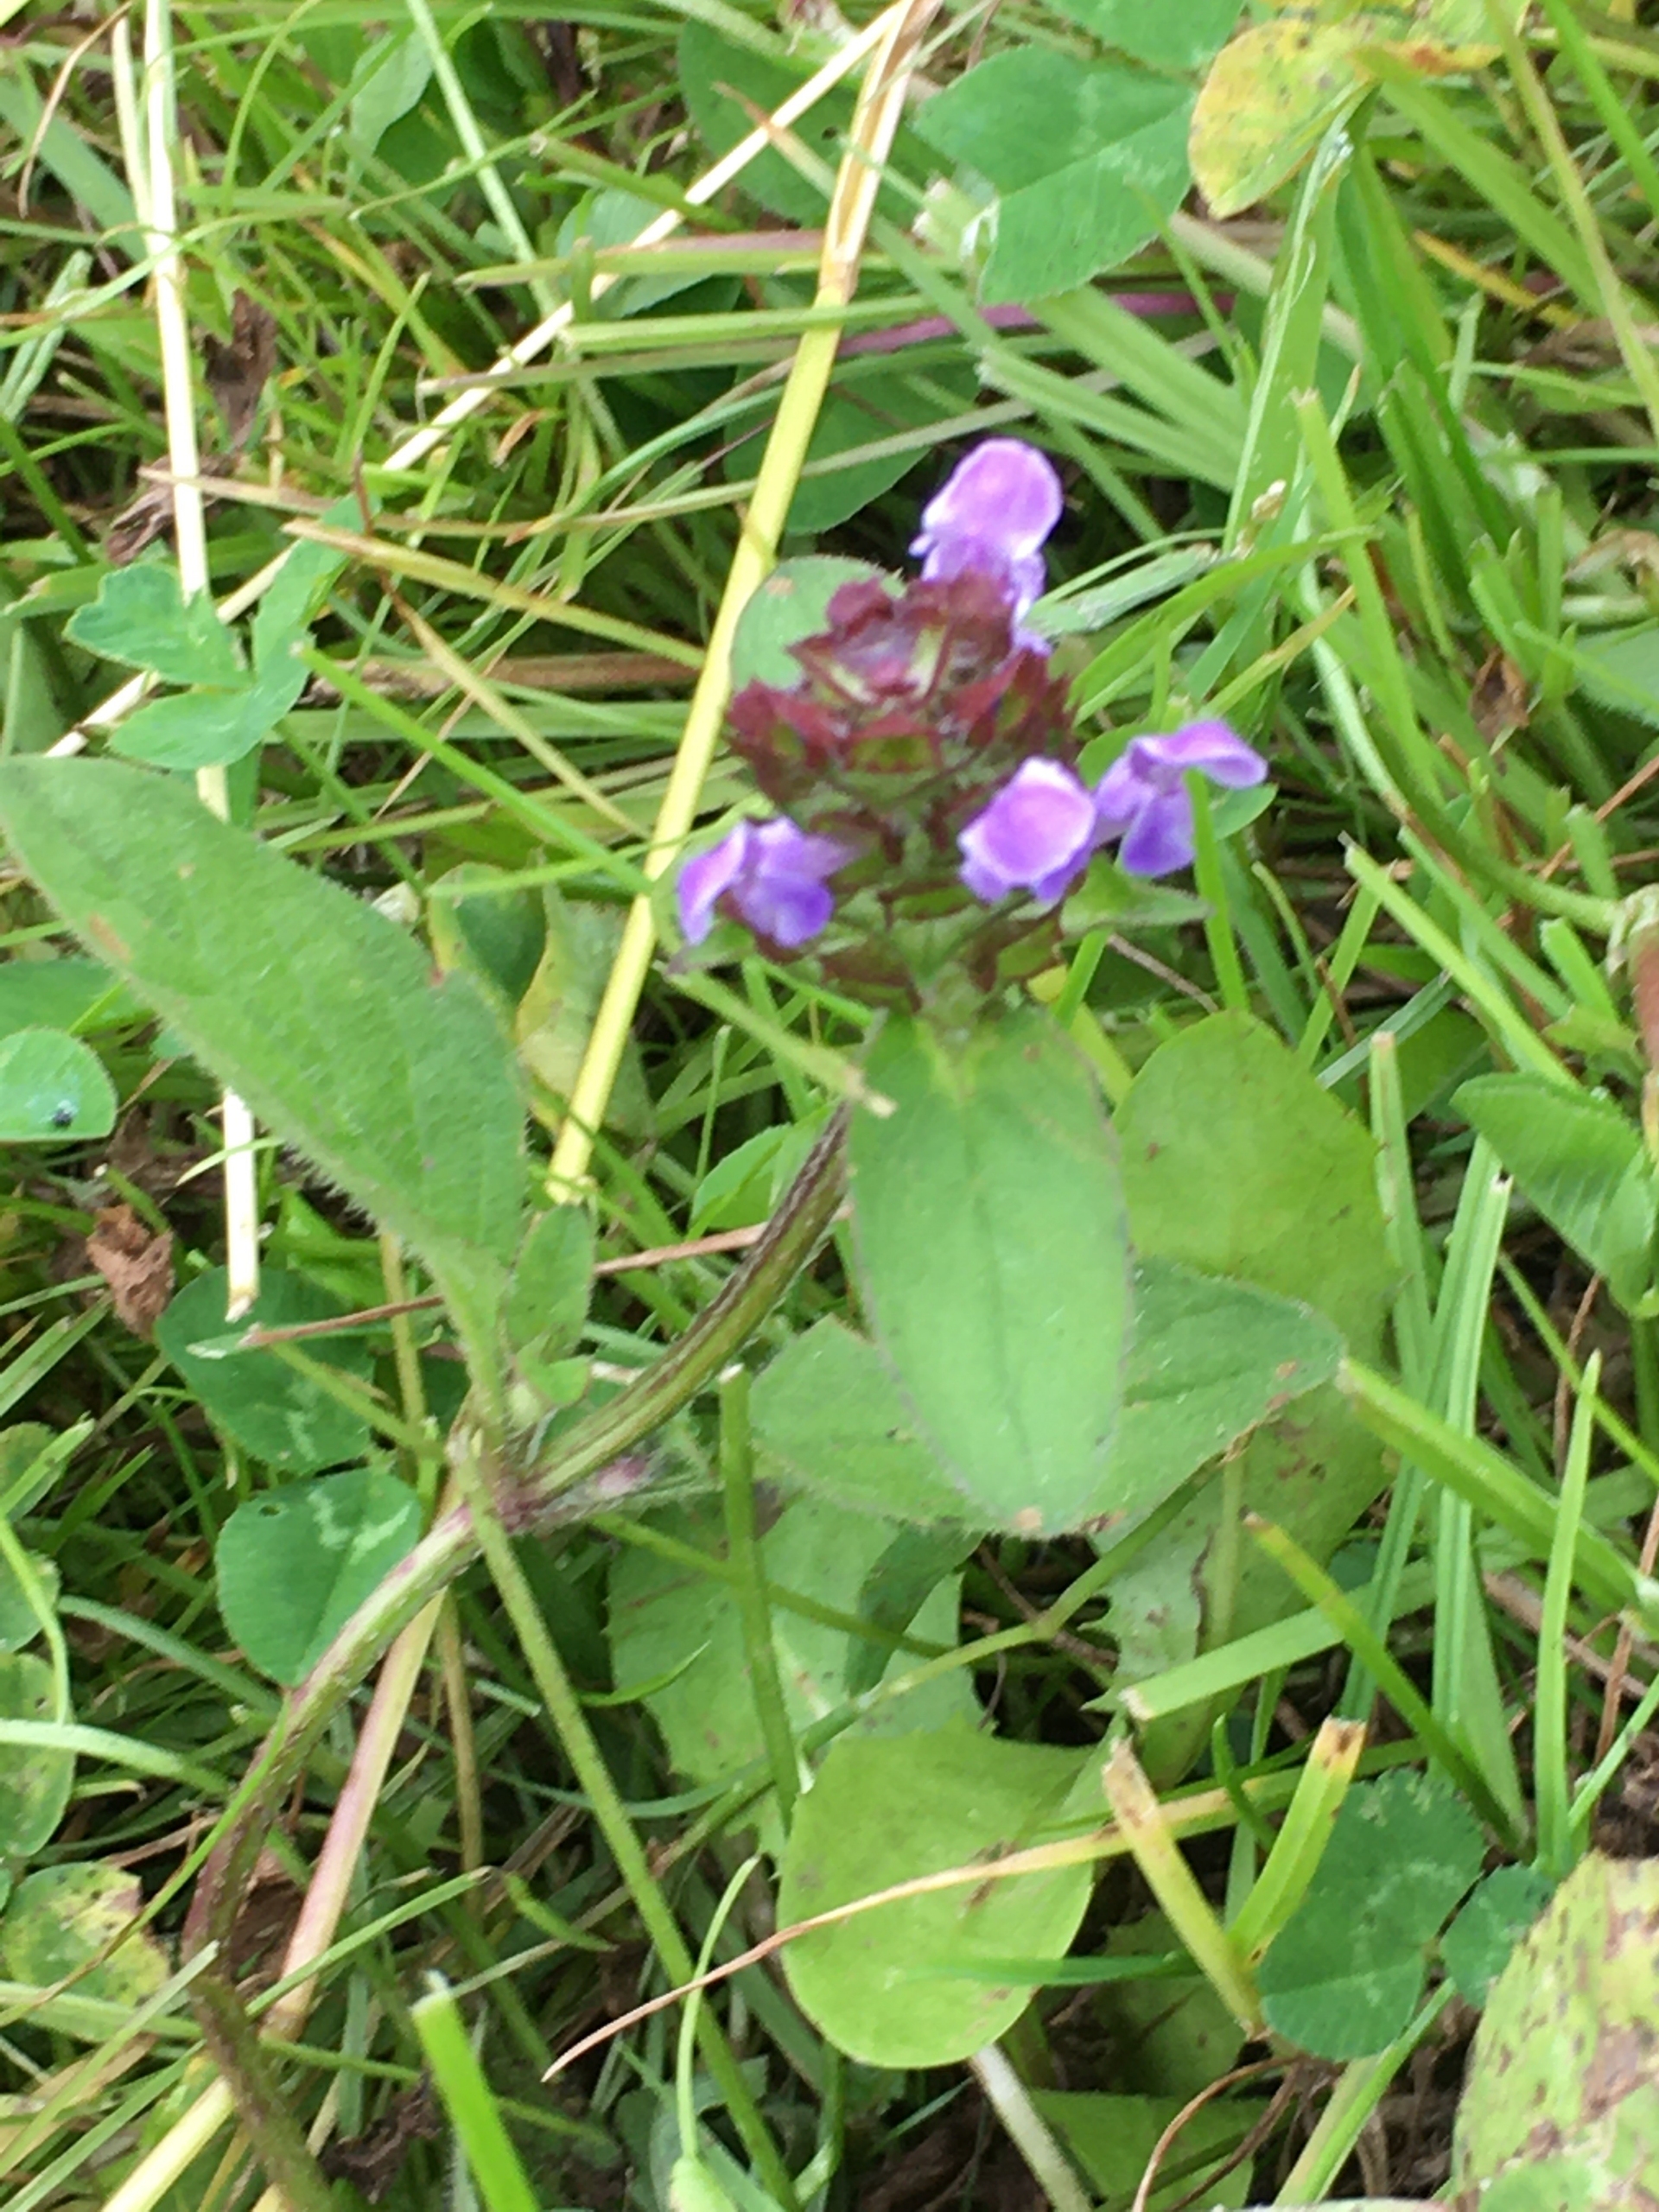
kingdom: Plantae
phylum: Tracheophyta
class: Magnoliopsida
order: Lamiales
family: Lamiaceae
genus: Prunella
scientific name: Prunella vulgaris
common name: Almindelig brunelle
